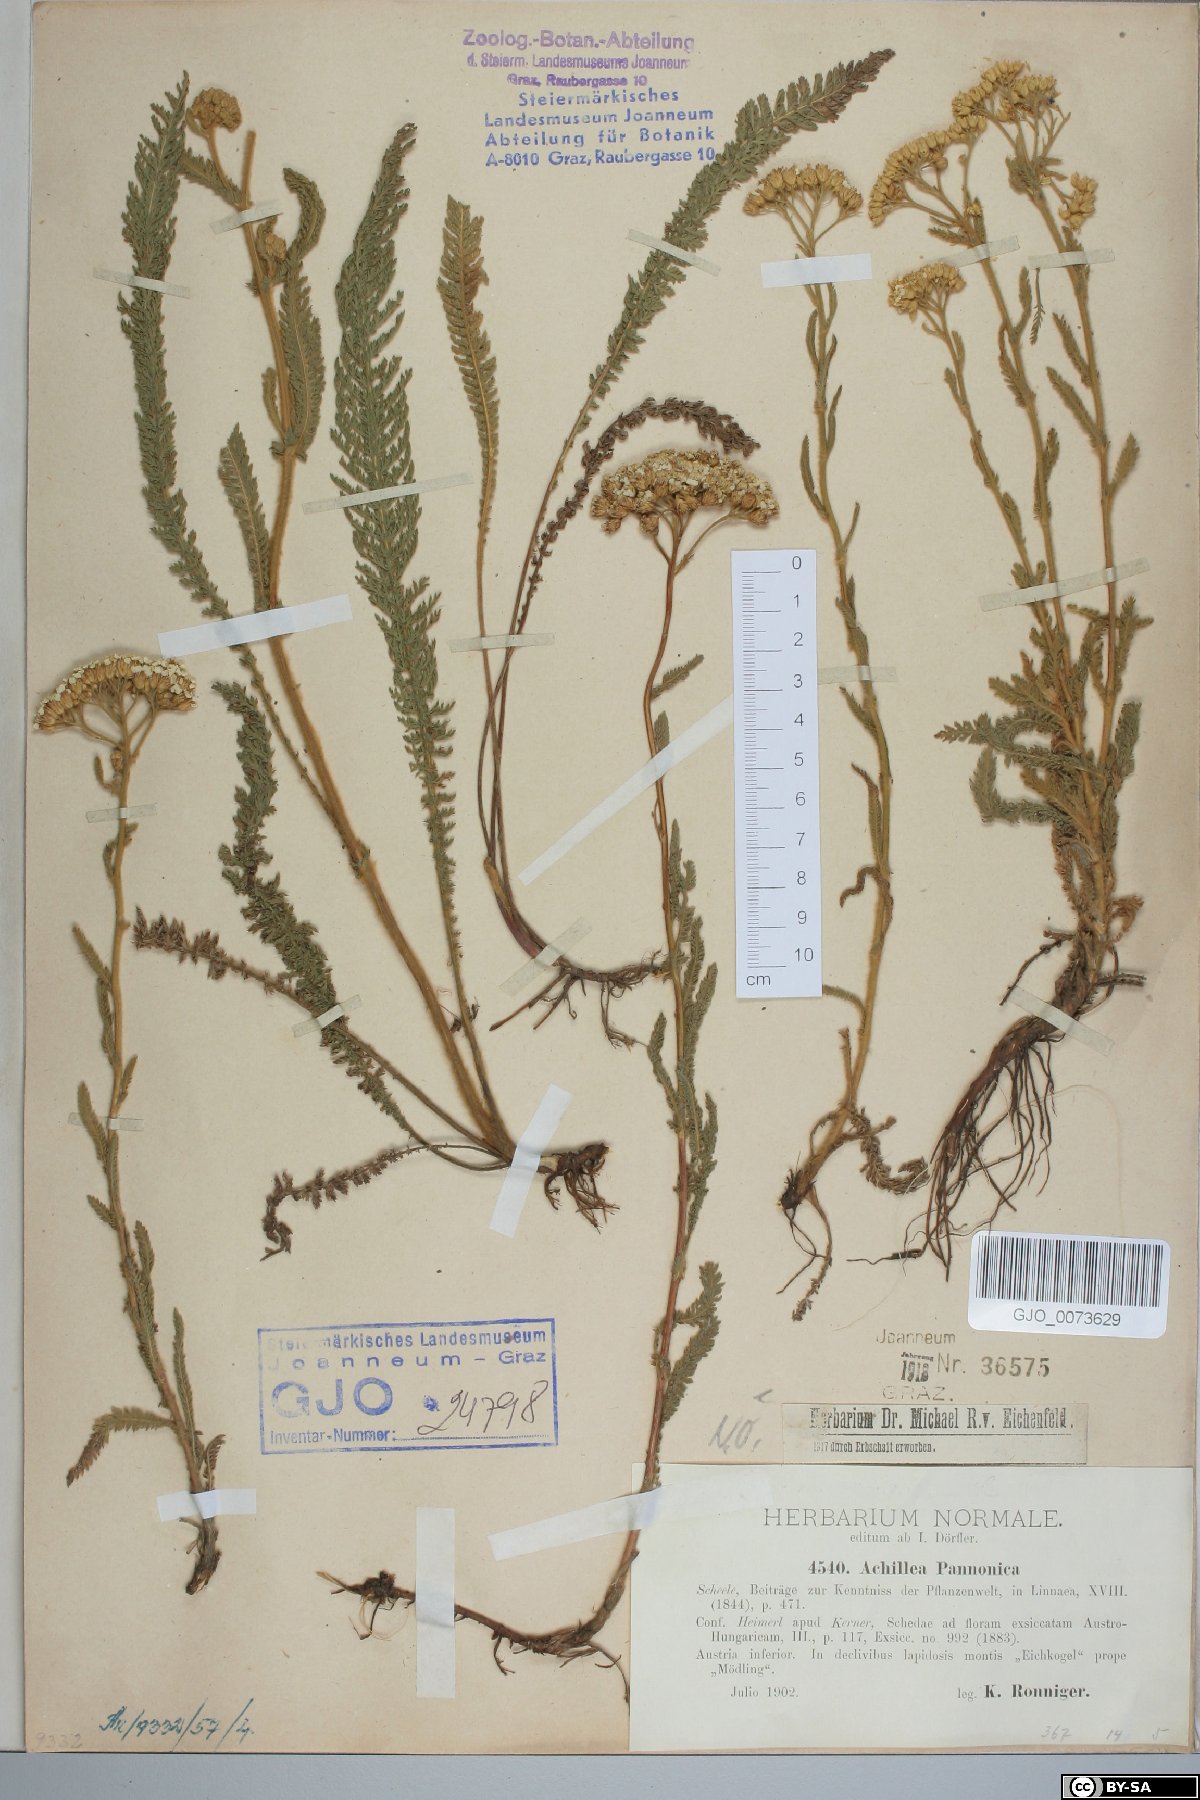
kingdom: Plantae
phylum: Tracheophyta
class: Magnoliopsida
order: Asterales
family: Asteraceae
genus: Achillea
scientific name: Achillea pannonica
